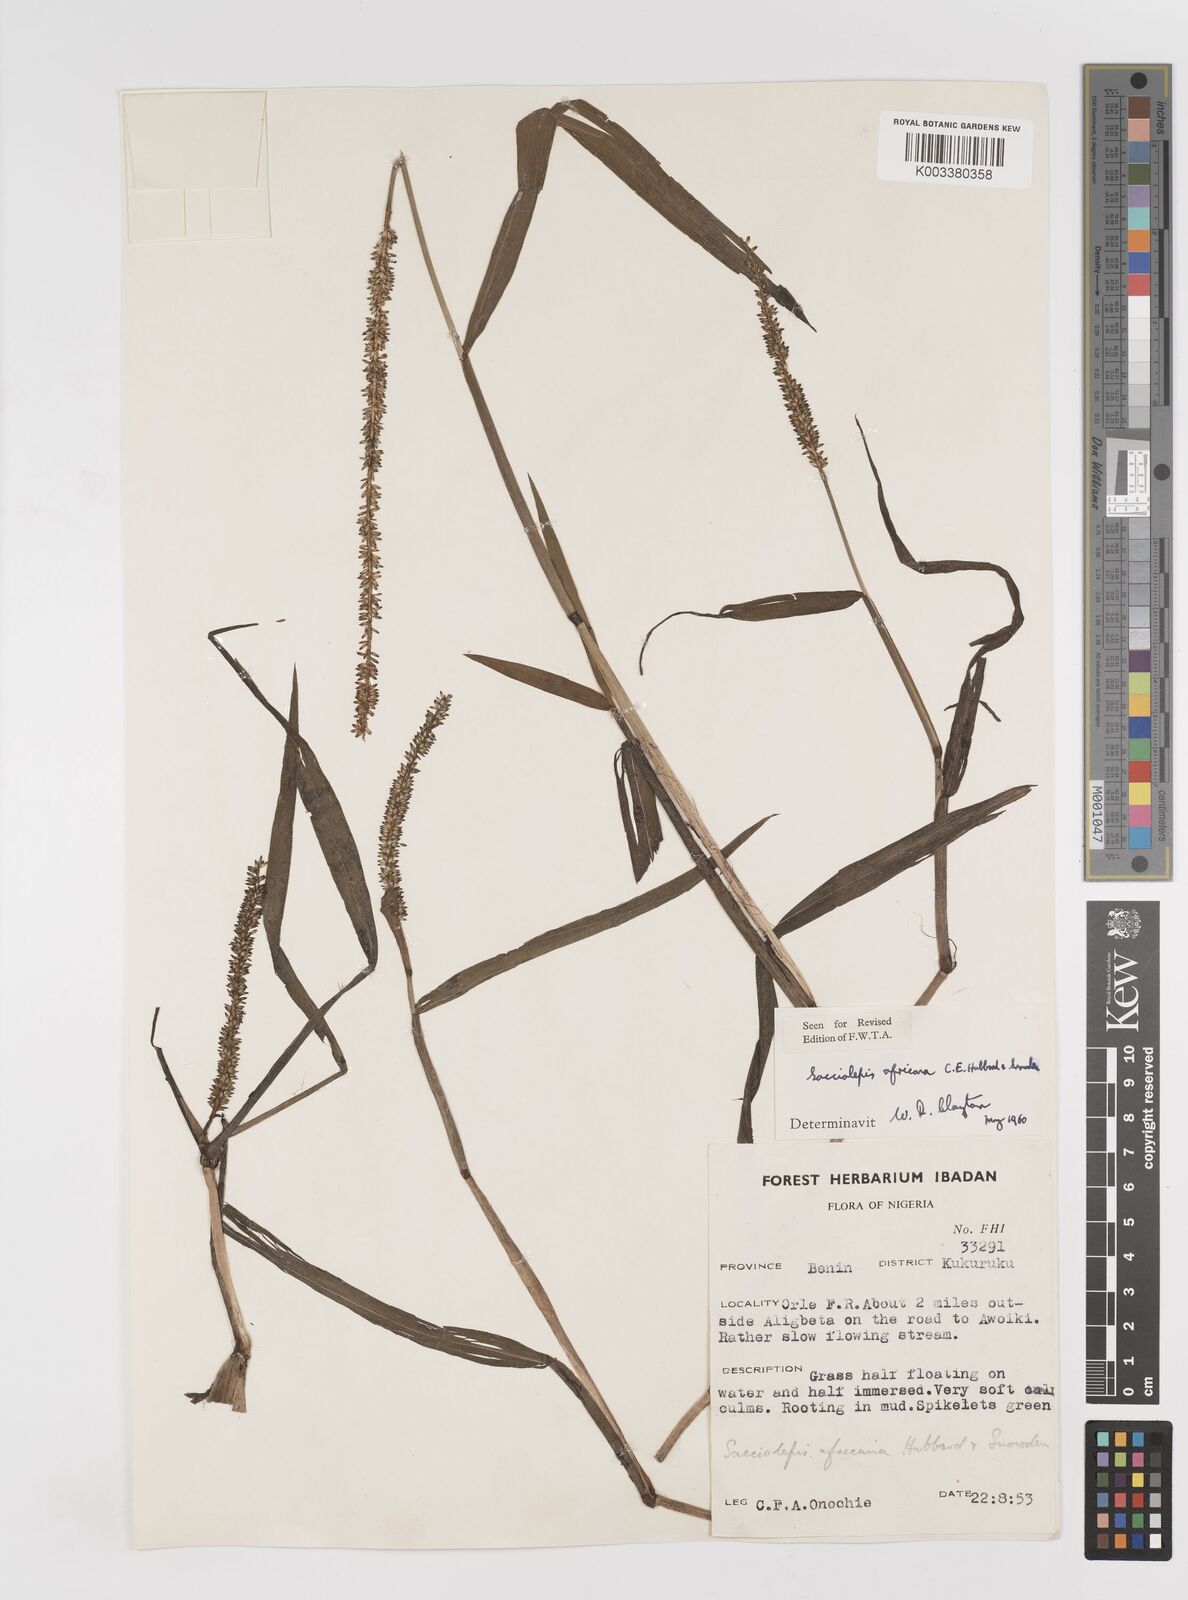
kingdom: Plantae
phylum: Tracheophyta
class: Liliopsida
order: Poales
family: Poaceae
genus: Sacciolepis
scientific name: Sacciolepis africana
